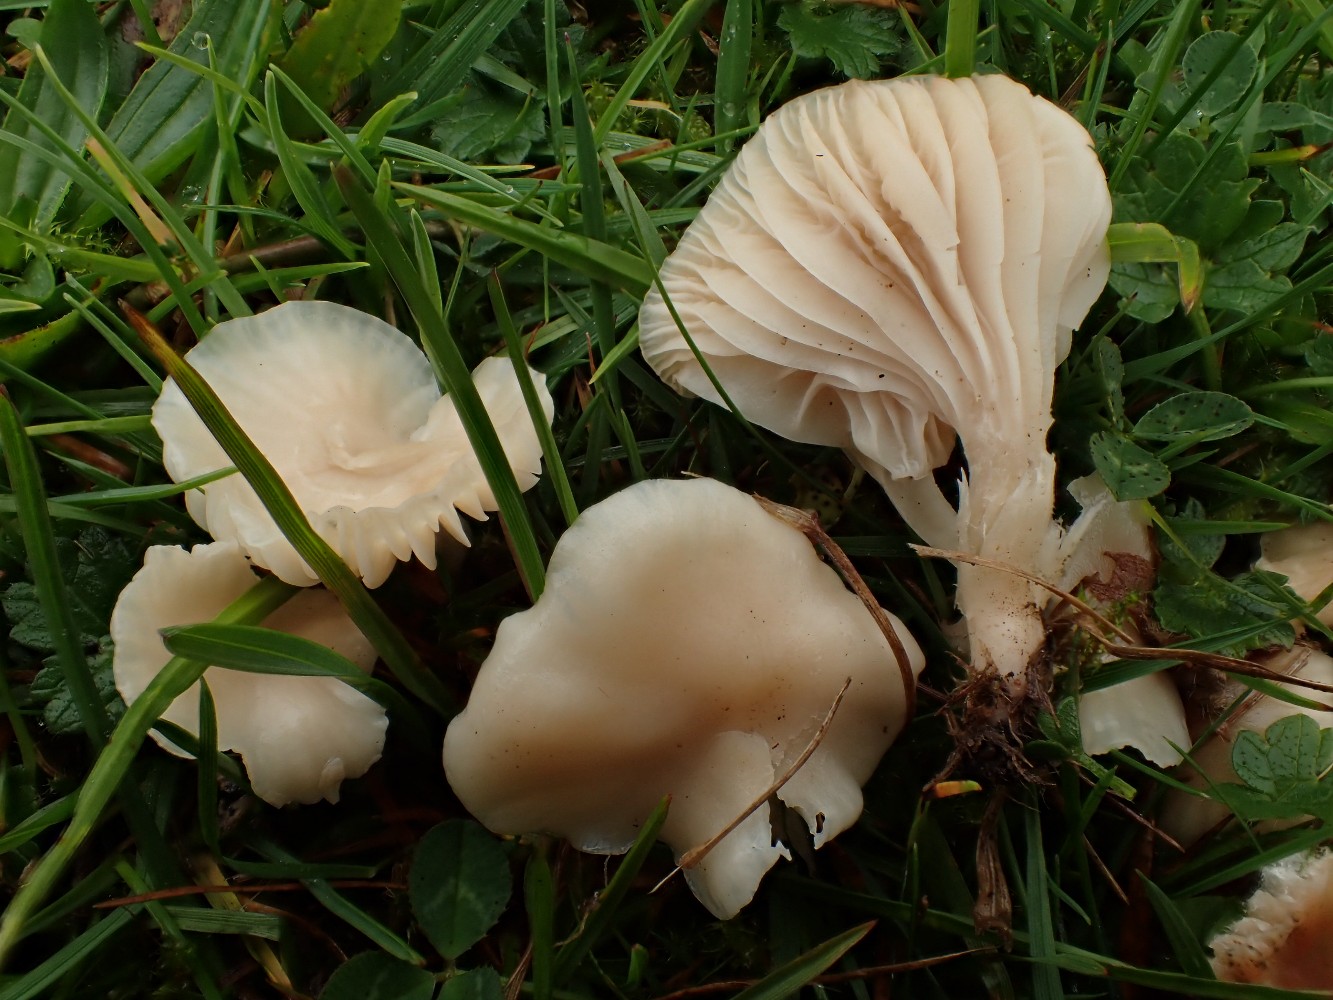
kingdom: Fungi
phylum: Basidiomycota
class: Agaricomycetes
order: Agaricales
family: Hygrophoraceae
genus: Cuphophyllus
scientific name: Cuphophyllus virgineus
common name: isabella-vokshat
